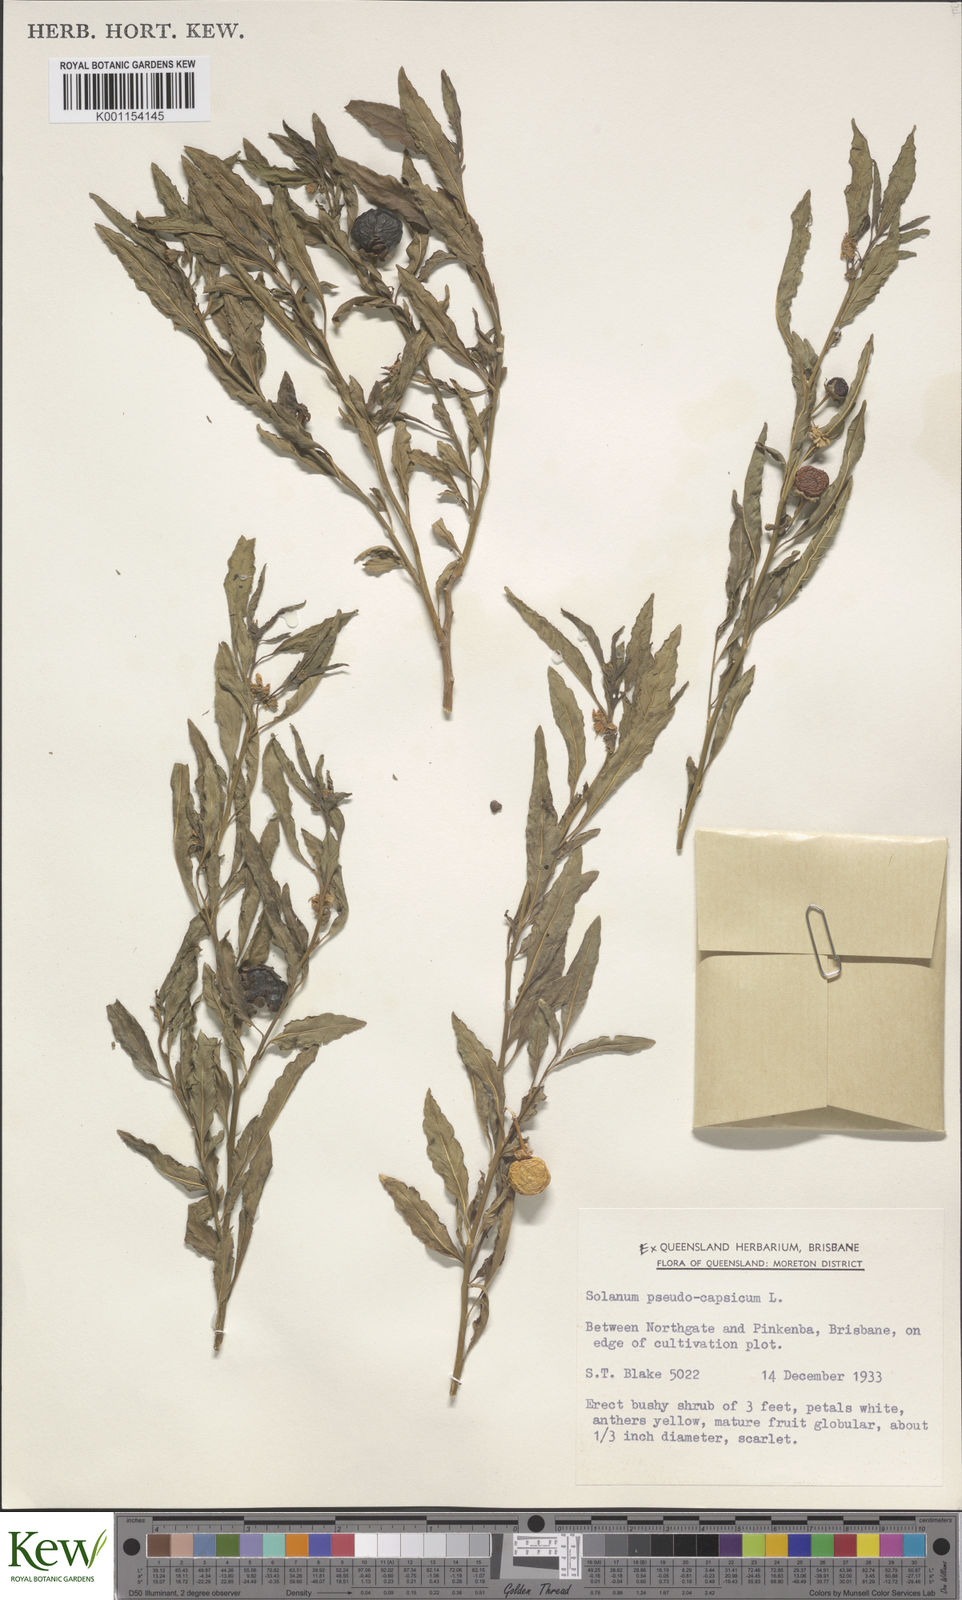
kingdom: Plantae
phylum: Tracheophyta
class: Magnoliopsida
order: Solanales
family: Solanaceae
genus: Solanum
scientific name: Solanum pseudocapsicum
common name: Jerusalem cherry
